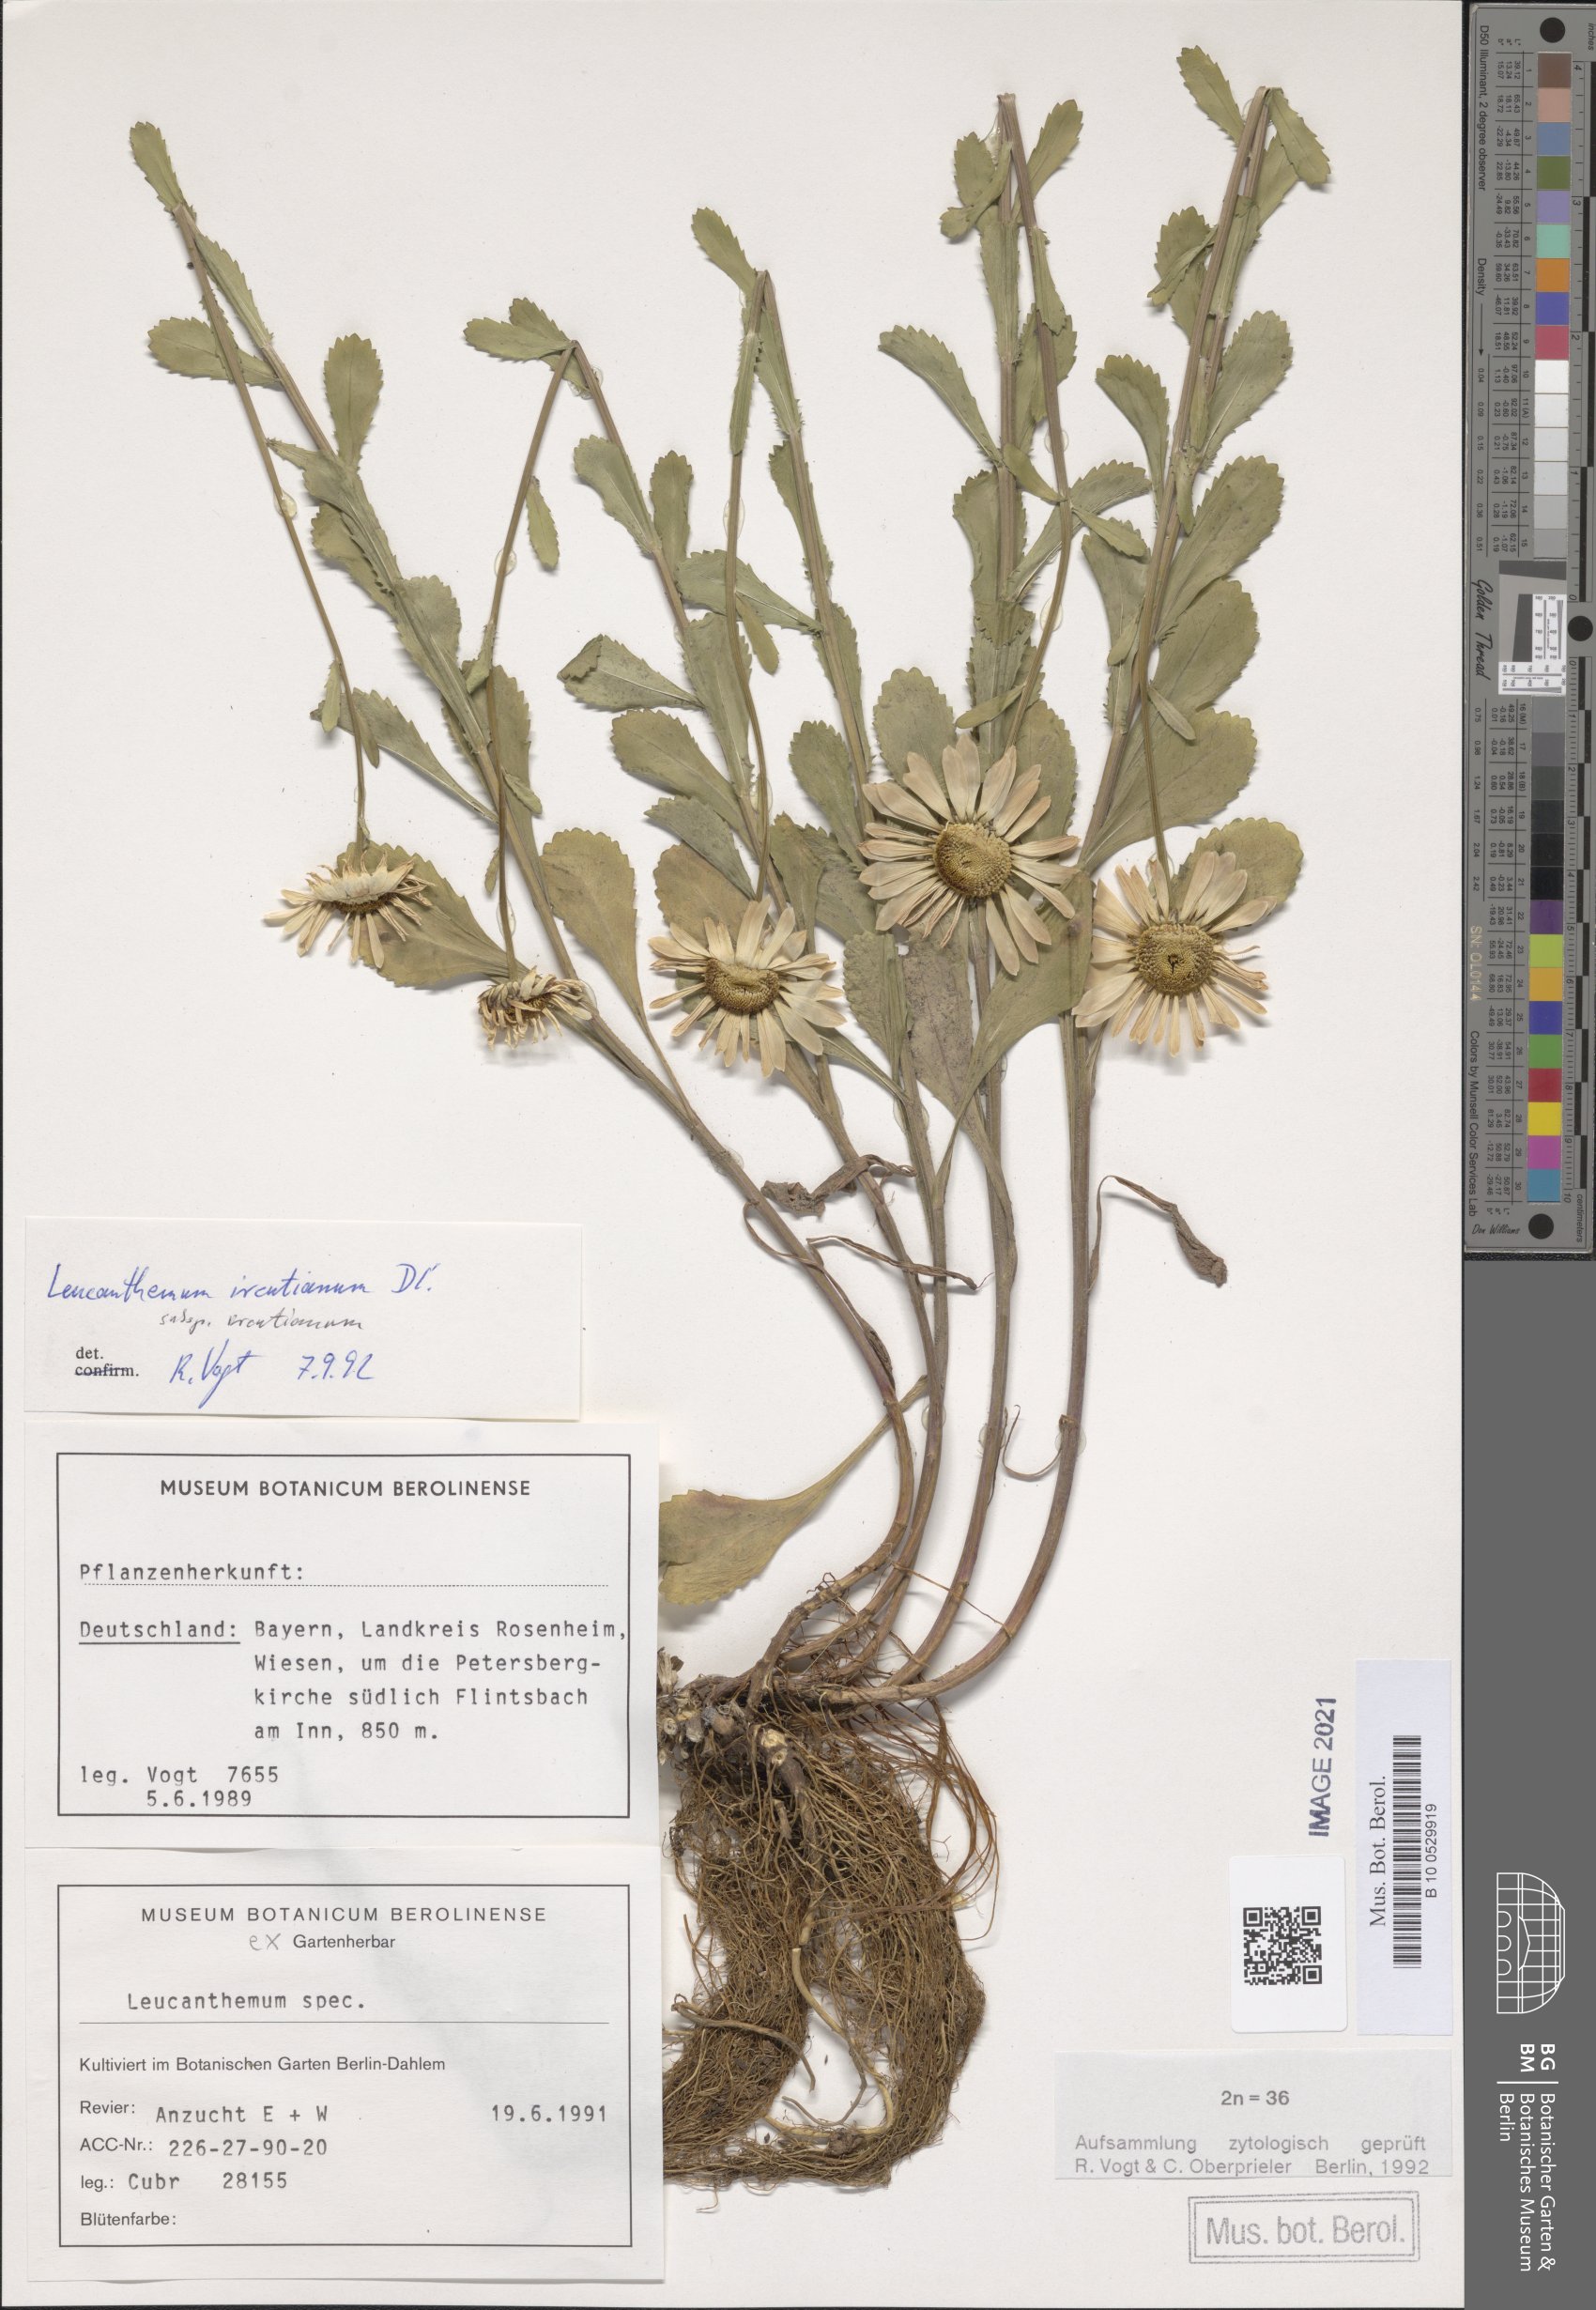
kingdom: Plantae
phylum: Tracheophyta
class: Magnoliopsida
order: Asterales
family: Asteraceae
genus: Leucanthemum
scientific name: Leucanthemum ircutianum
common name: Daisy
